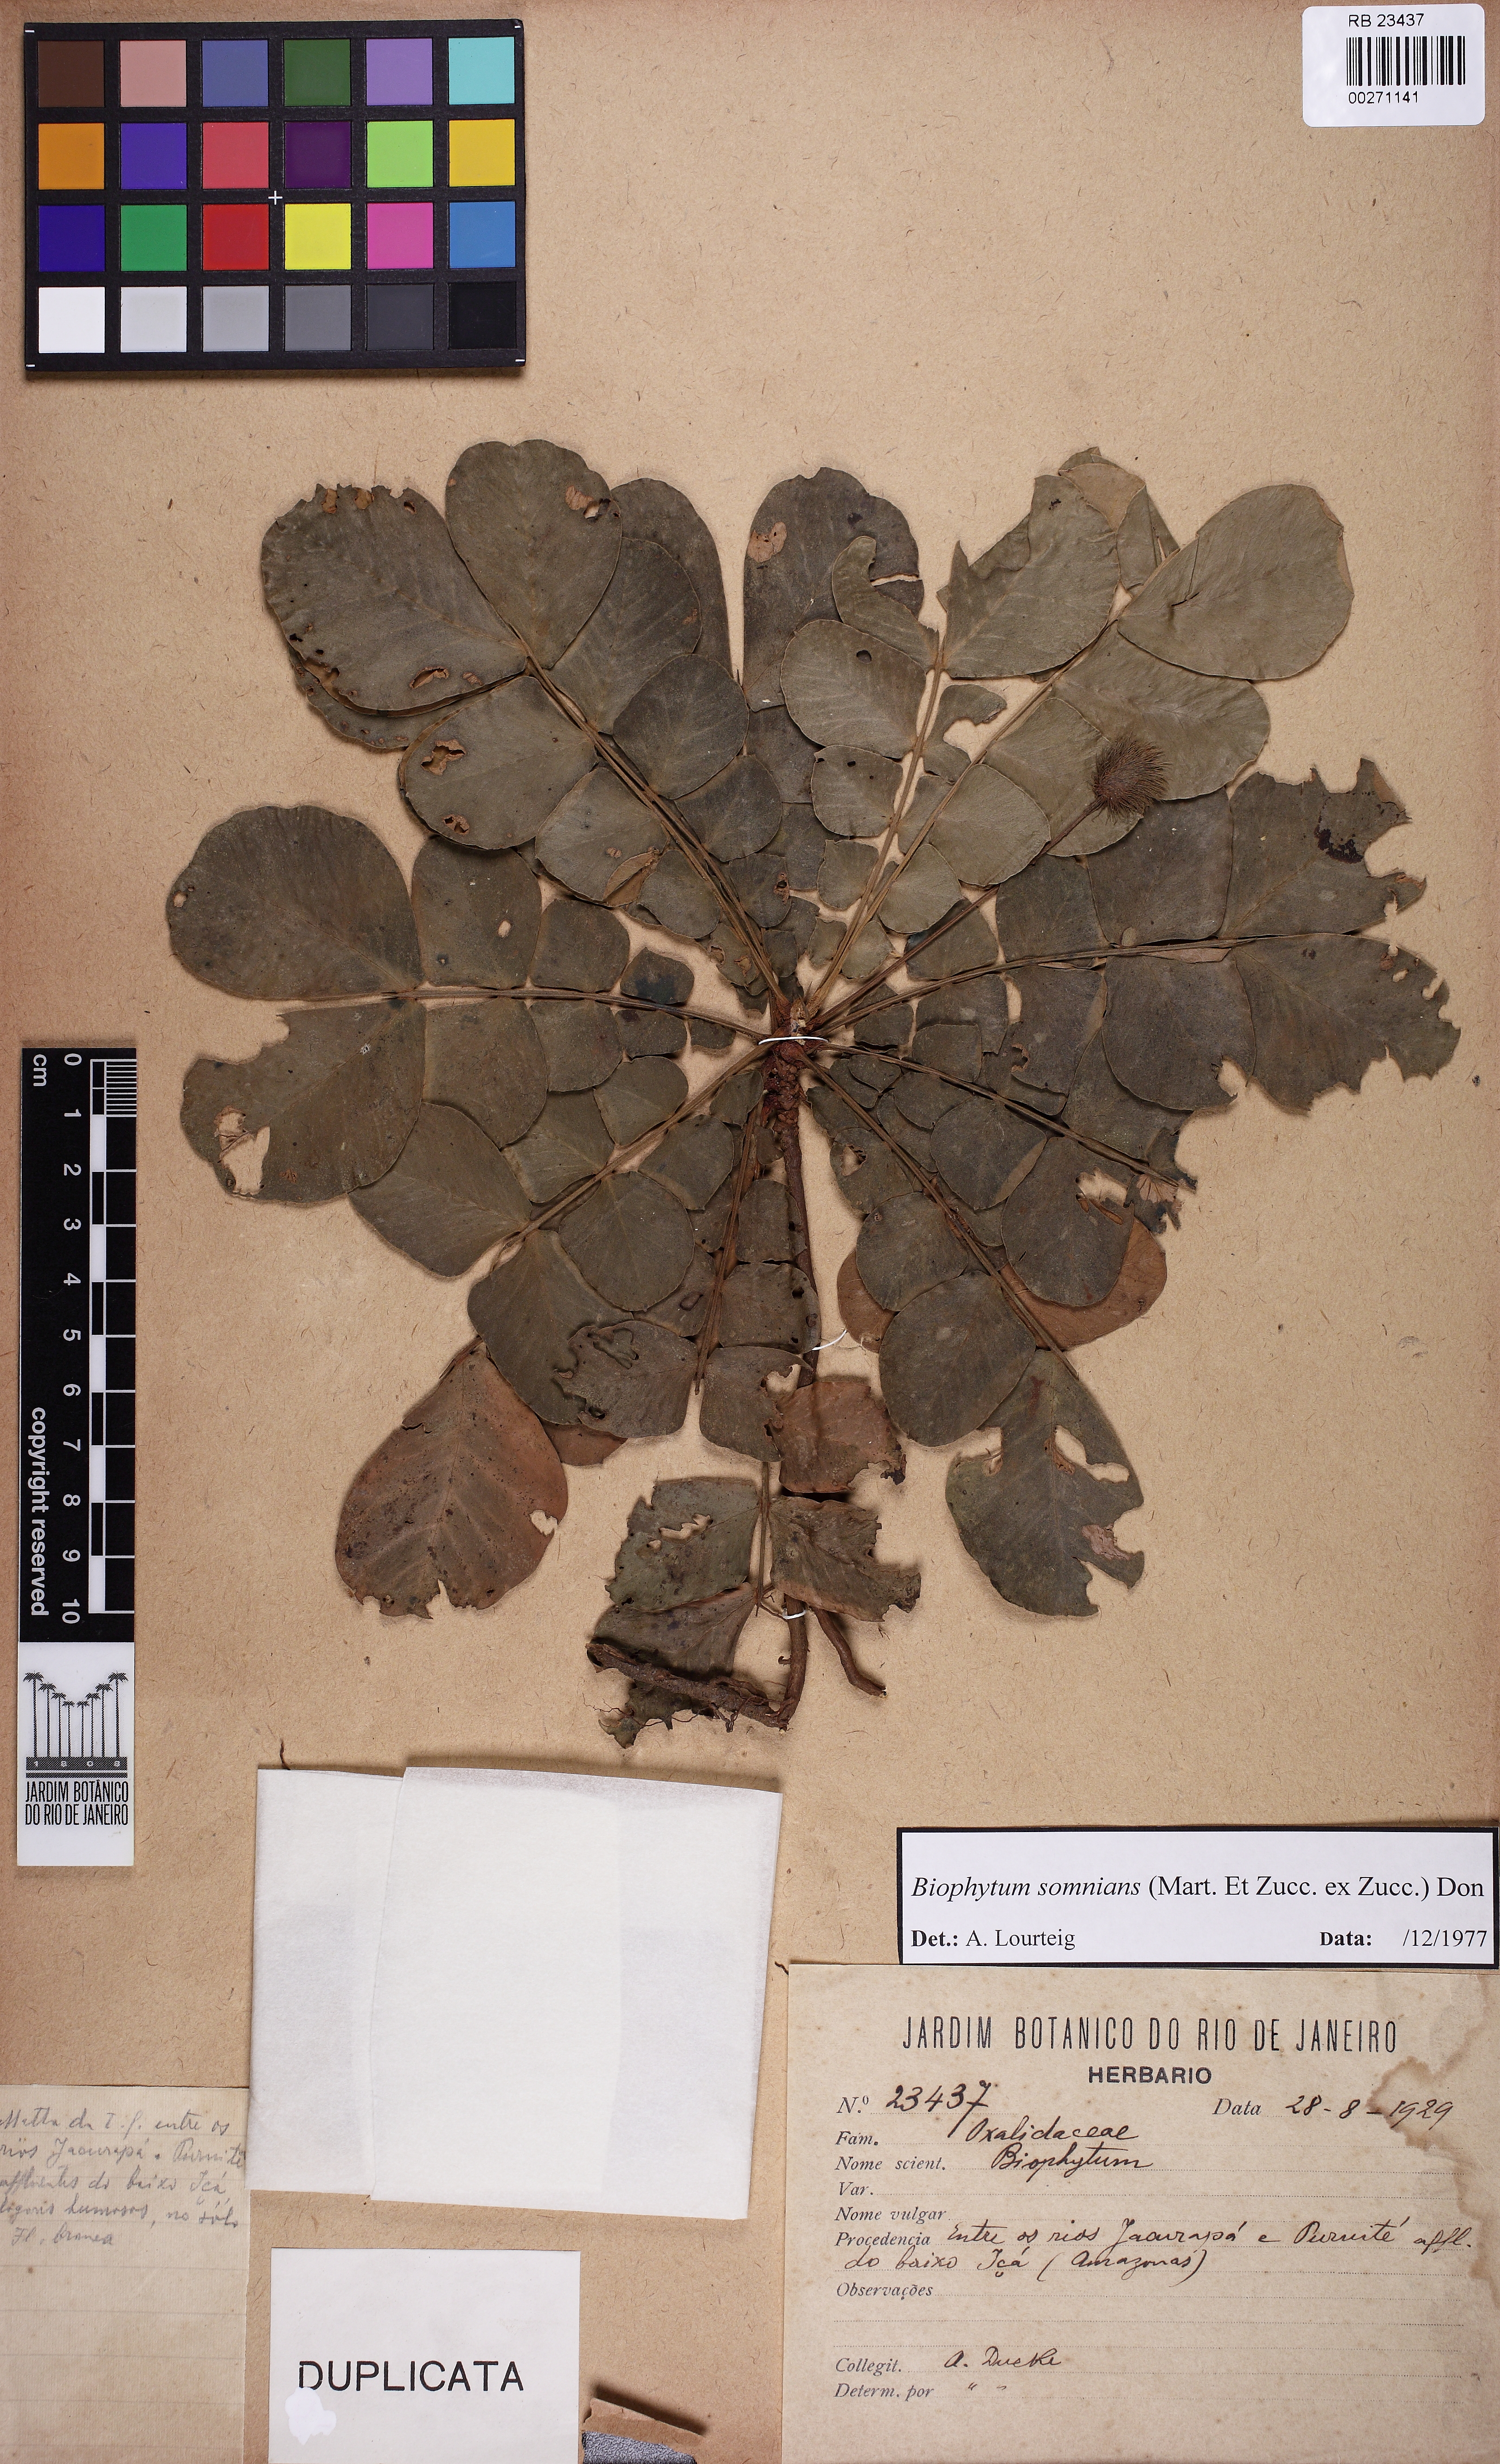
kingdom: Plantae
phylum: Tracheophyta
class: Magnoliopsida
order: Oxalidales
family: Oxalidaceae
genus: Biophytum
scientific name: Biophytum somnians
